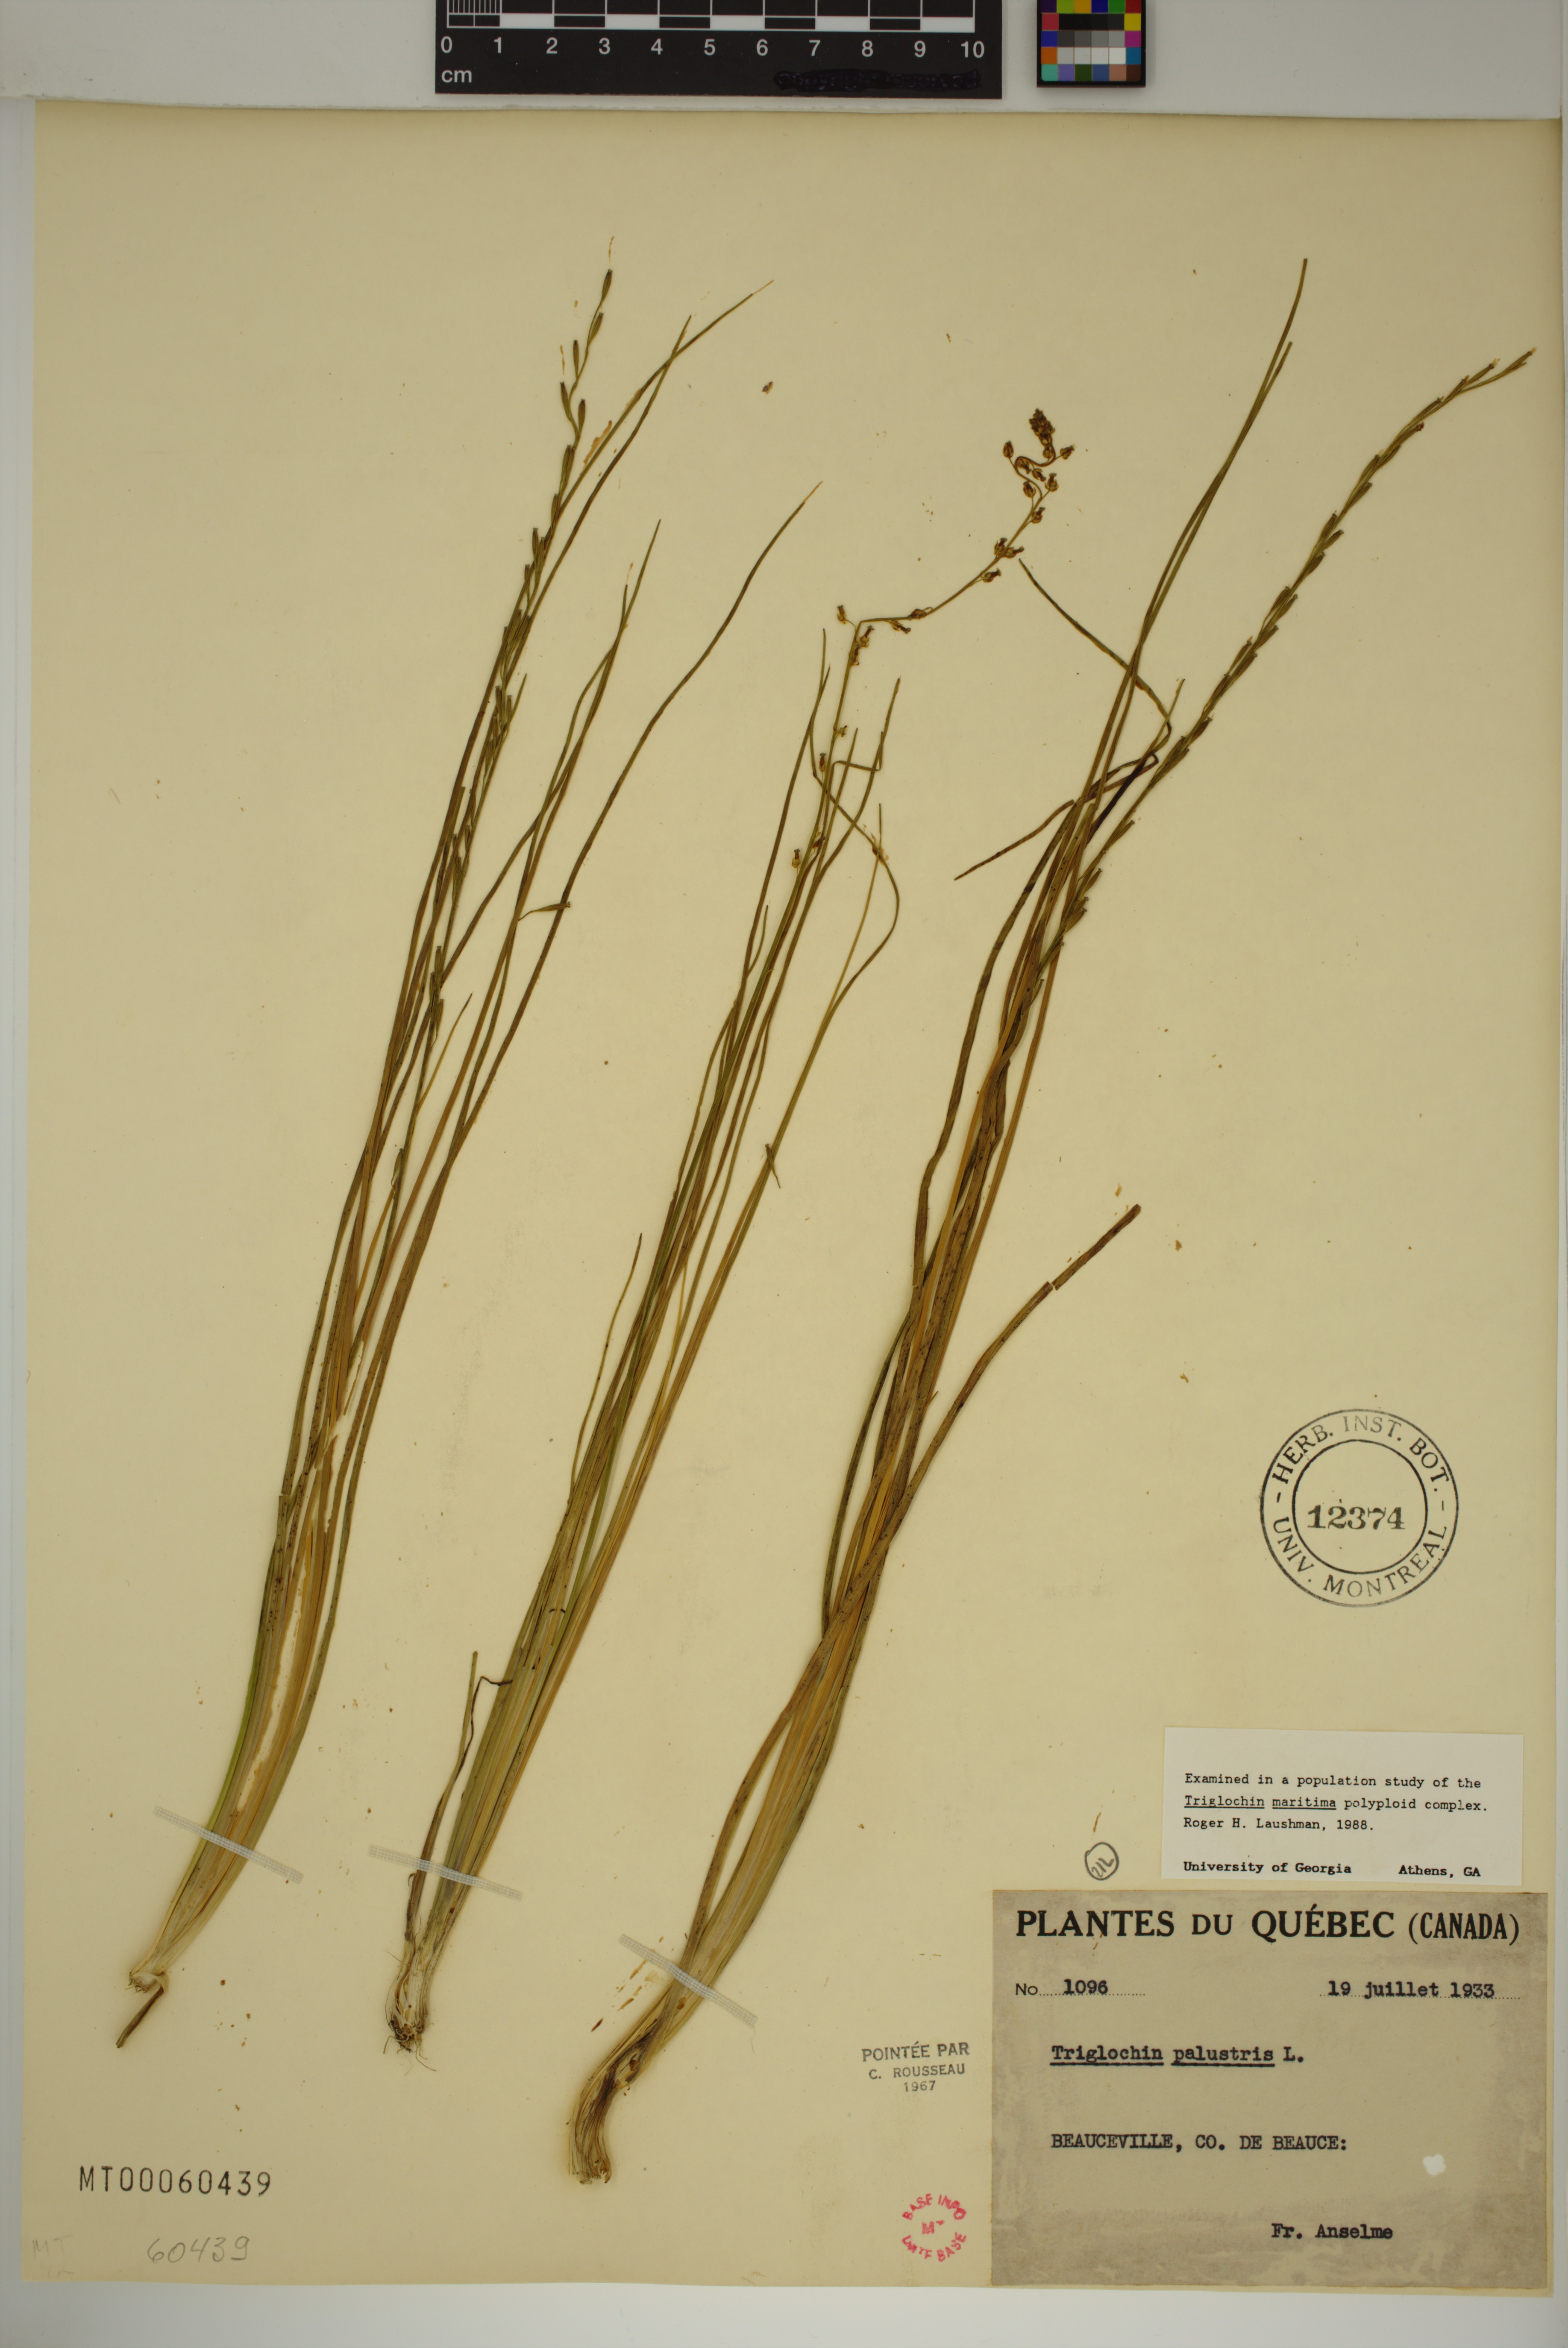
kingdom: Plantae
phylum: Tracheophyta
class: Liliopsida
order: Alismatales
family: Juncaginaceae
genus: Triglochin
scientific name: Triglochin palustris
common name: Marsh arrowgrass
